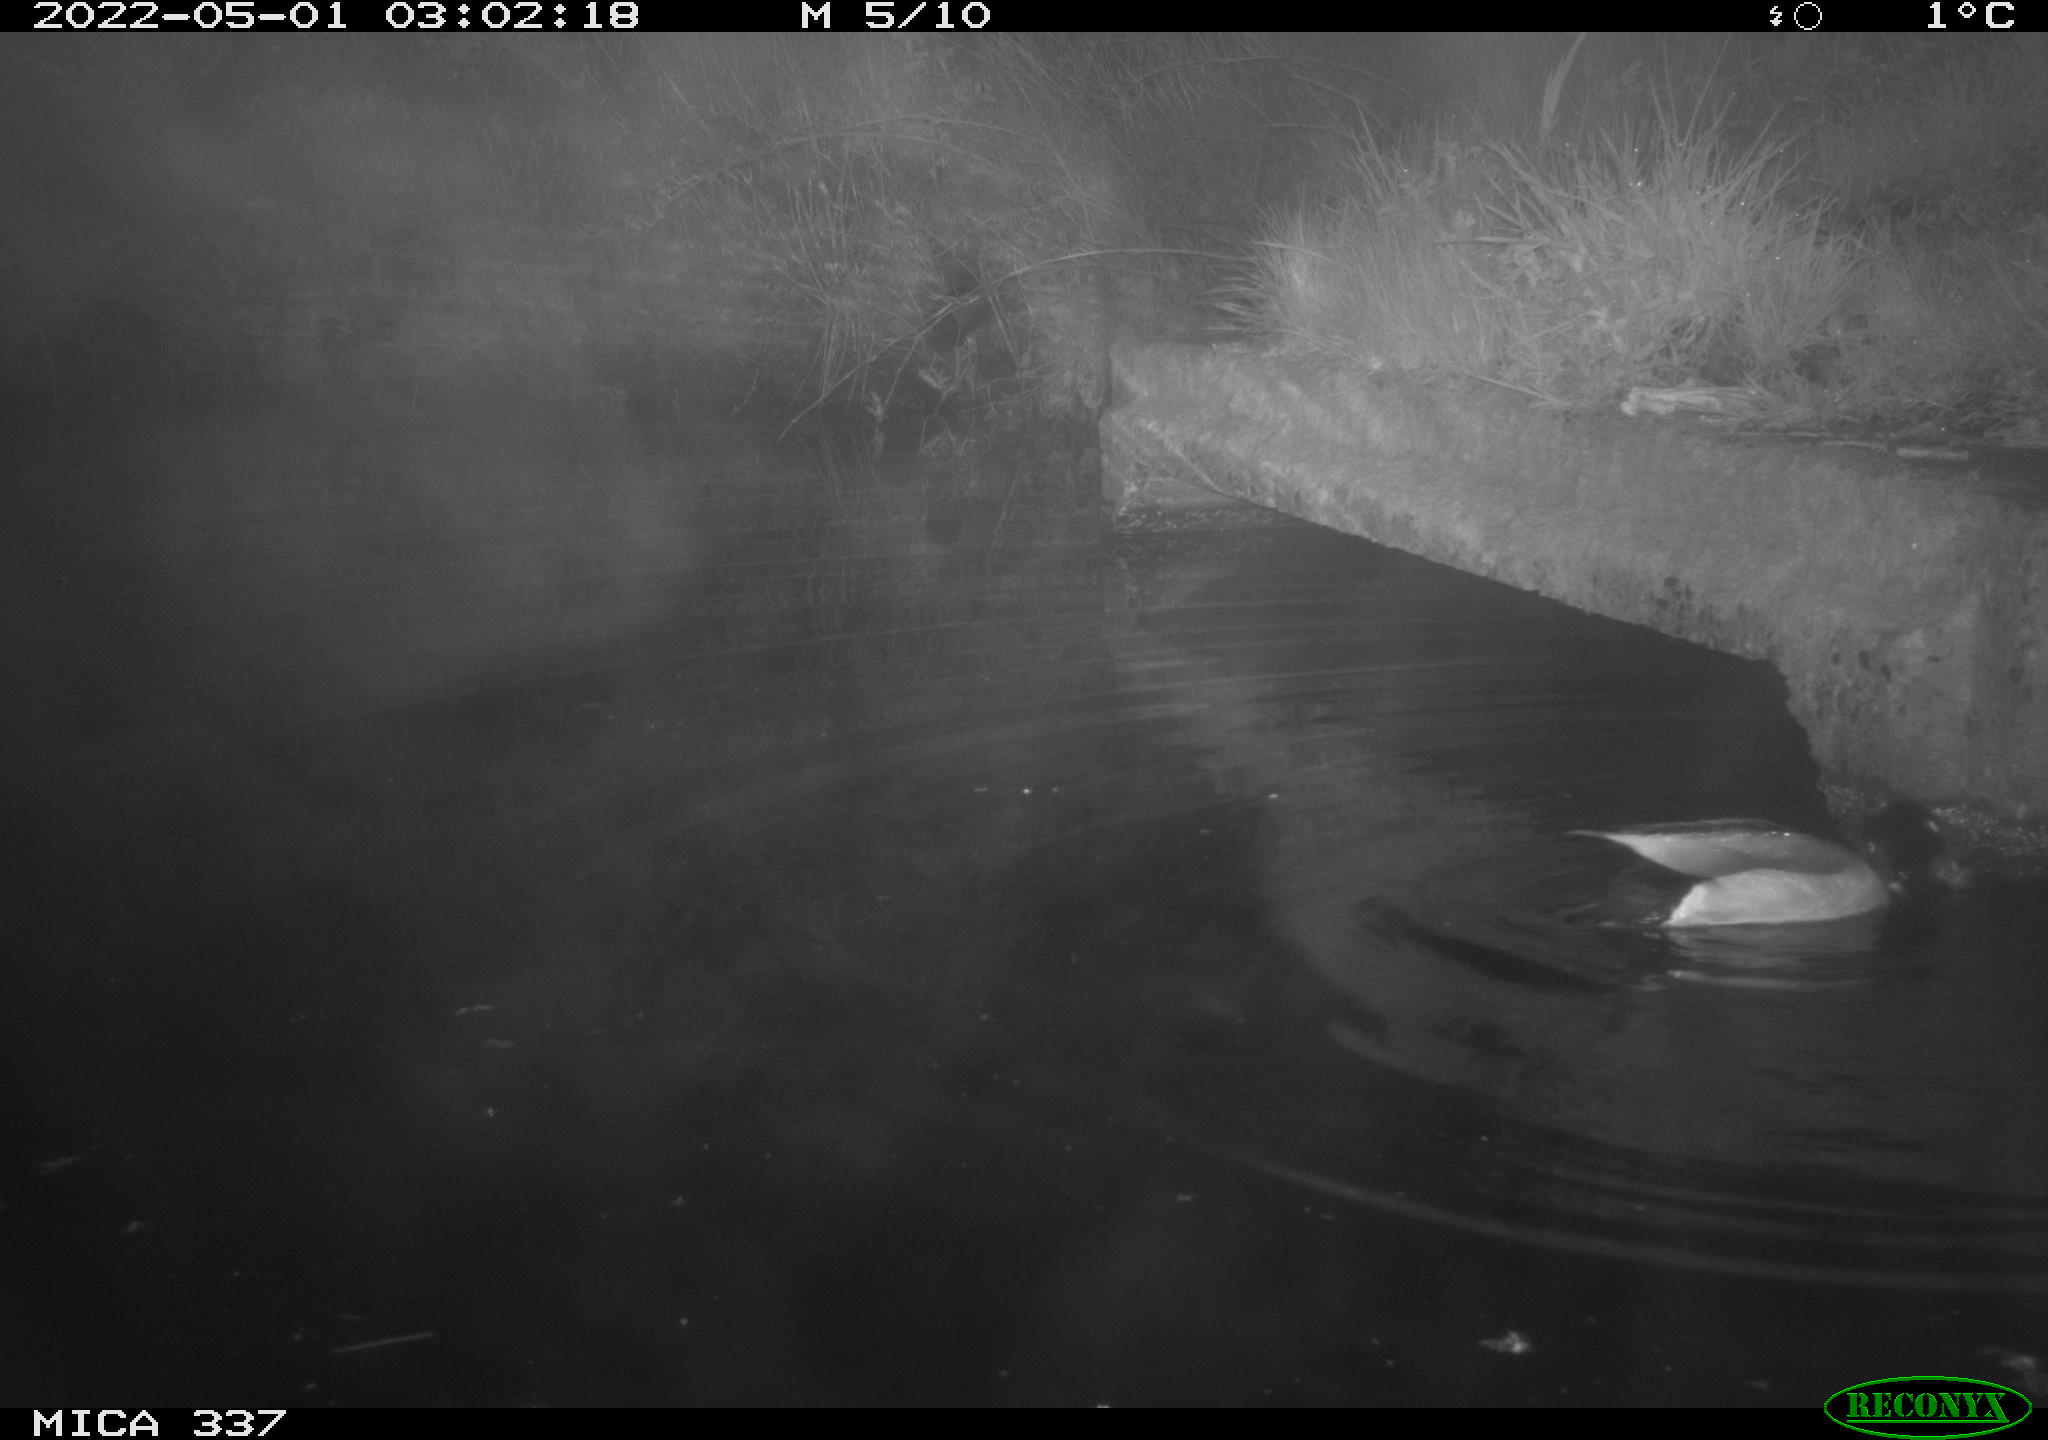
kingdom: Animalia
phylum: Chordata
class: Aves
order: Anseriformes
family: Anatidae
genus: Anas
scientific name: Anas platyrhynchos
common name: Mallard
